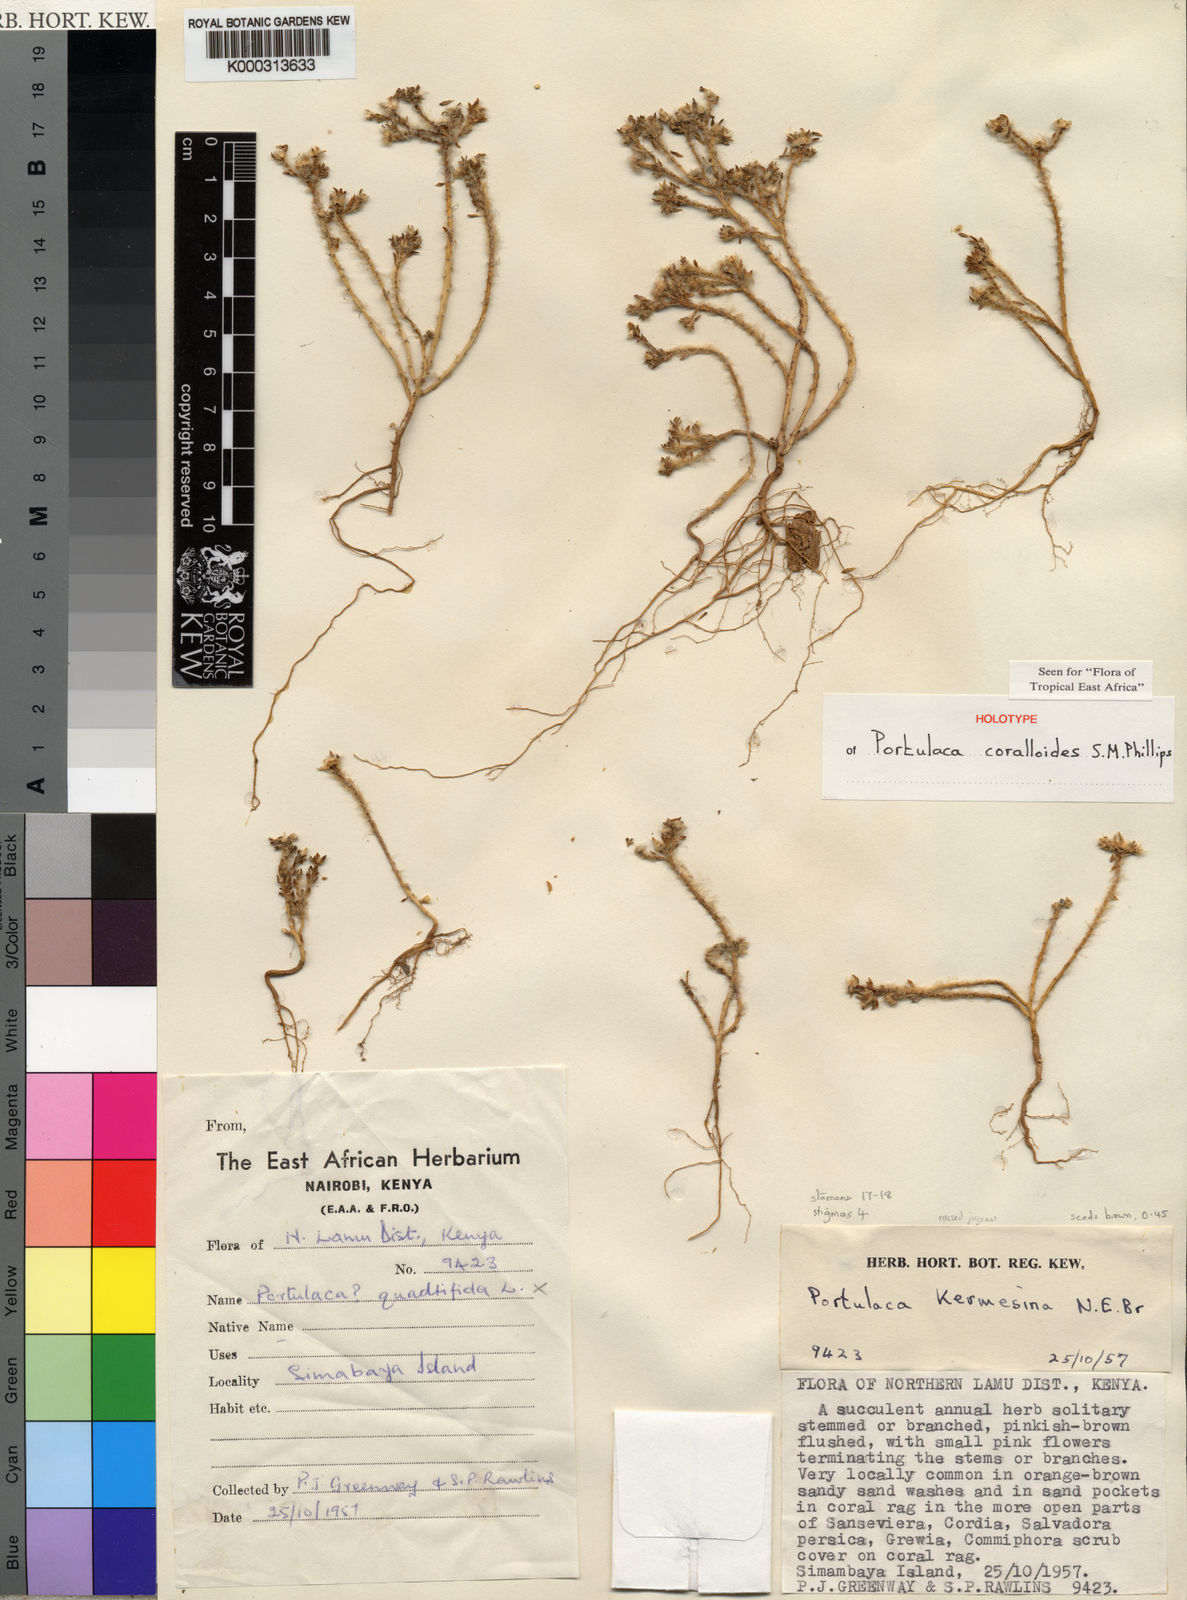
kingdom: Plantae
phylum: Tracheophyta
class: Magnoliopsida
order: Caryophyllales
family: Portulacaceae
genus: Portulaca
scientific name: Portulaca coralloides
